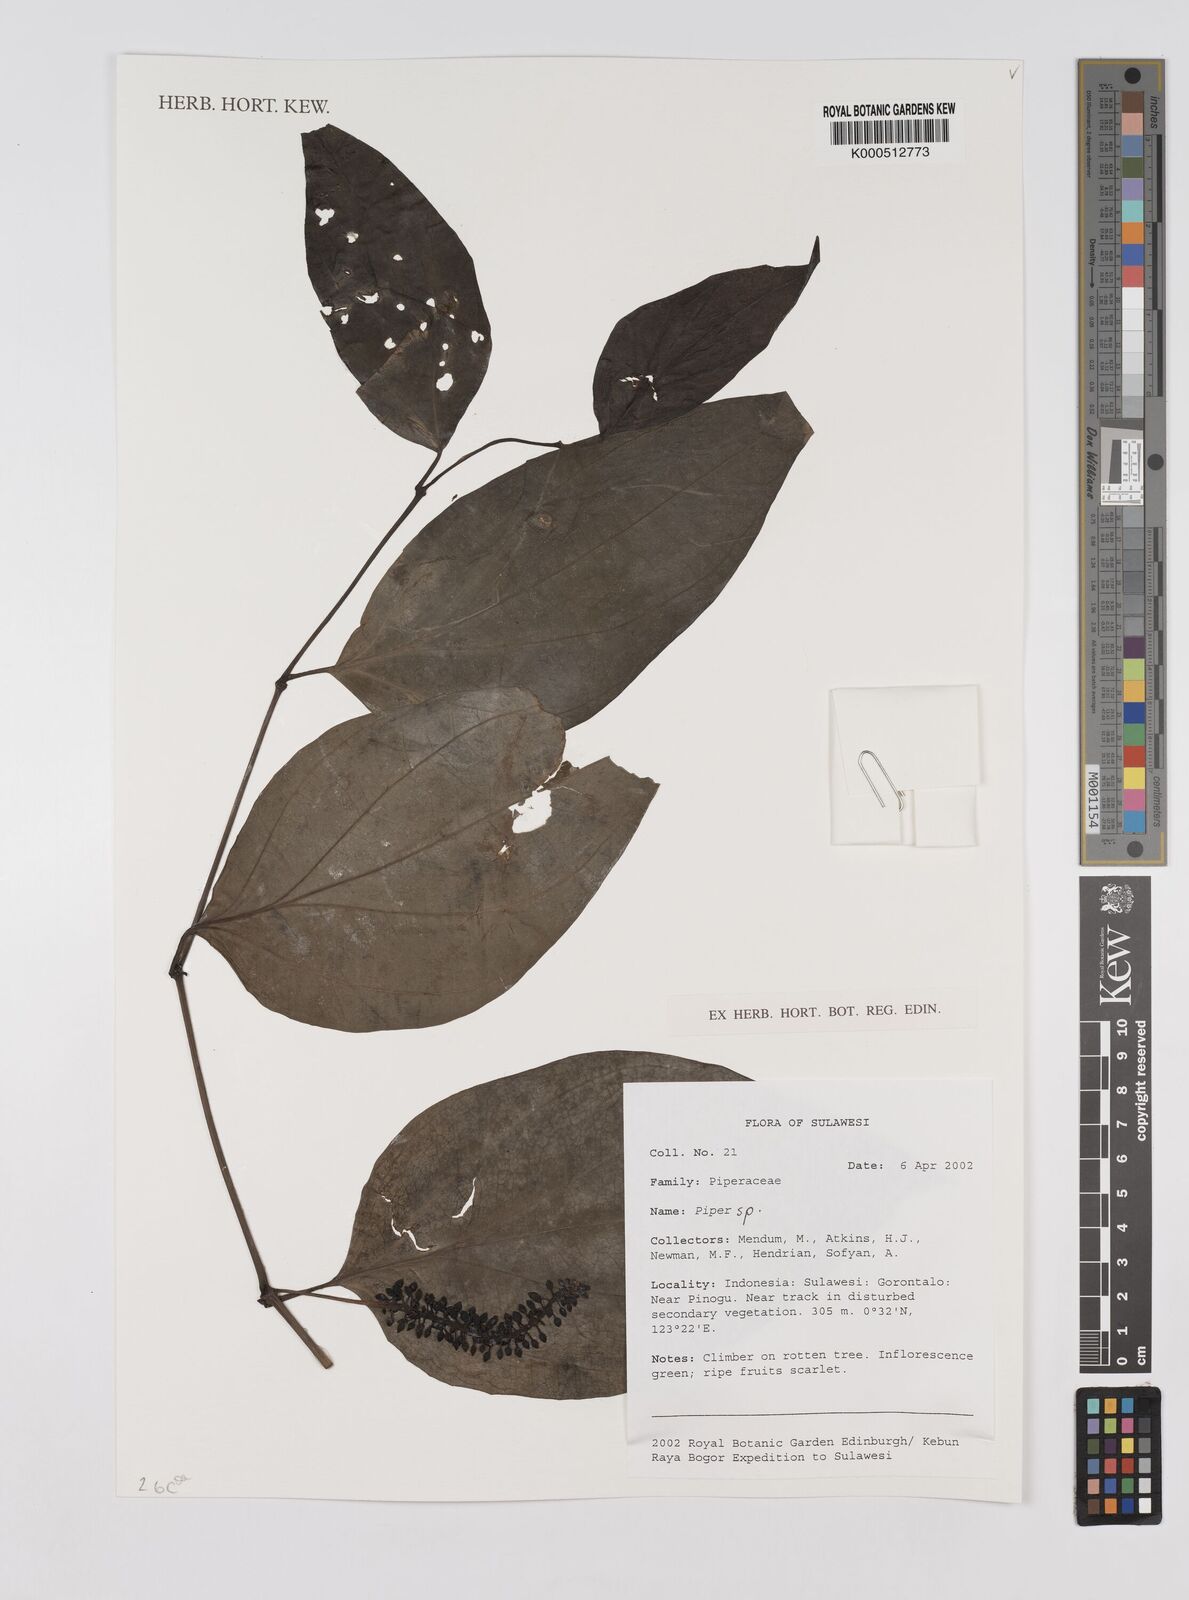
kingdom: Plantae
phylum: Tracheophyta
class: Magnoliopsida
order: Piperales
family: Piperaceae
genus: Piper
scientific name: Piper
